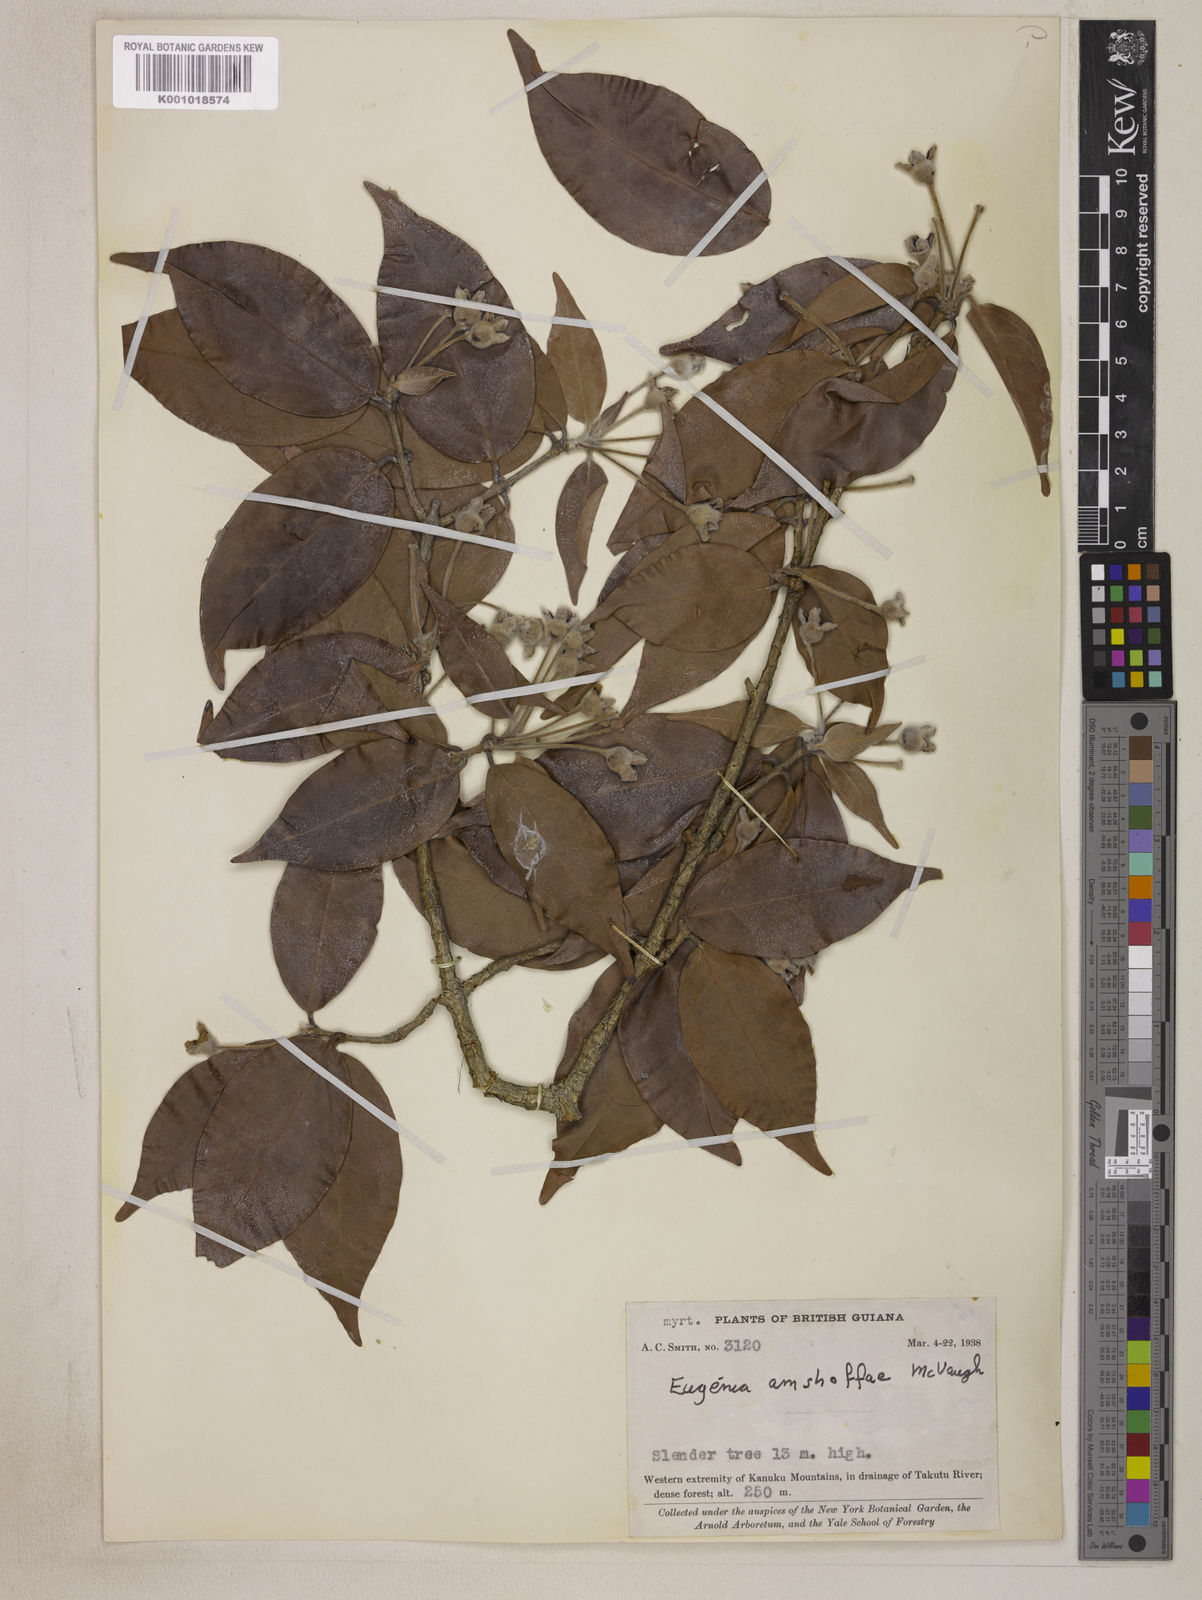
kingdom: Plantae
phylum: Tracheophyta
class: Magnoliopsida
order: Myrtales
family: Myrtaceae
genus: Eugenia
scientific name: Eugenia amshoffiae
